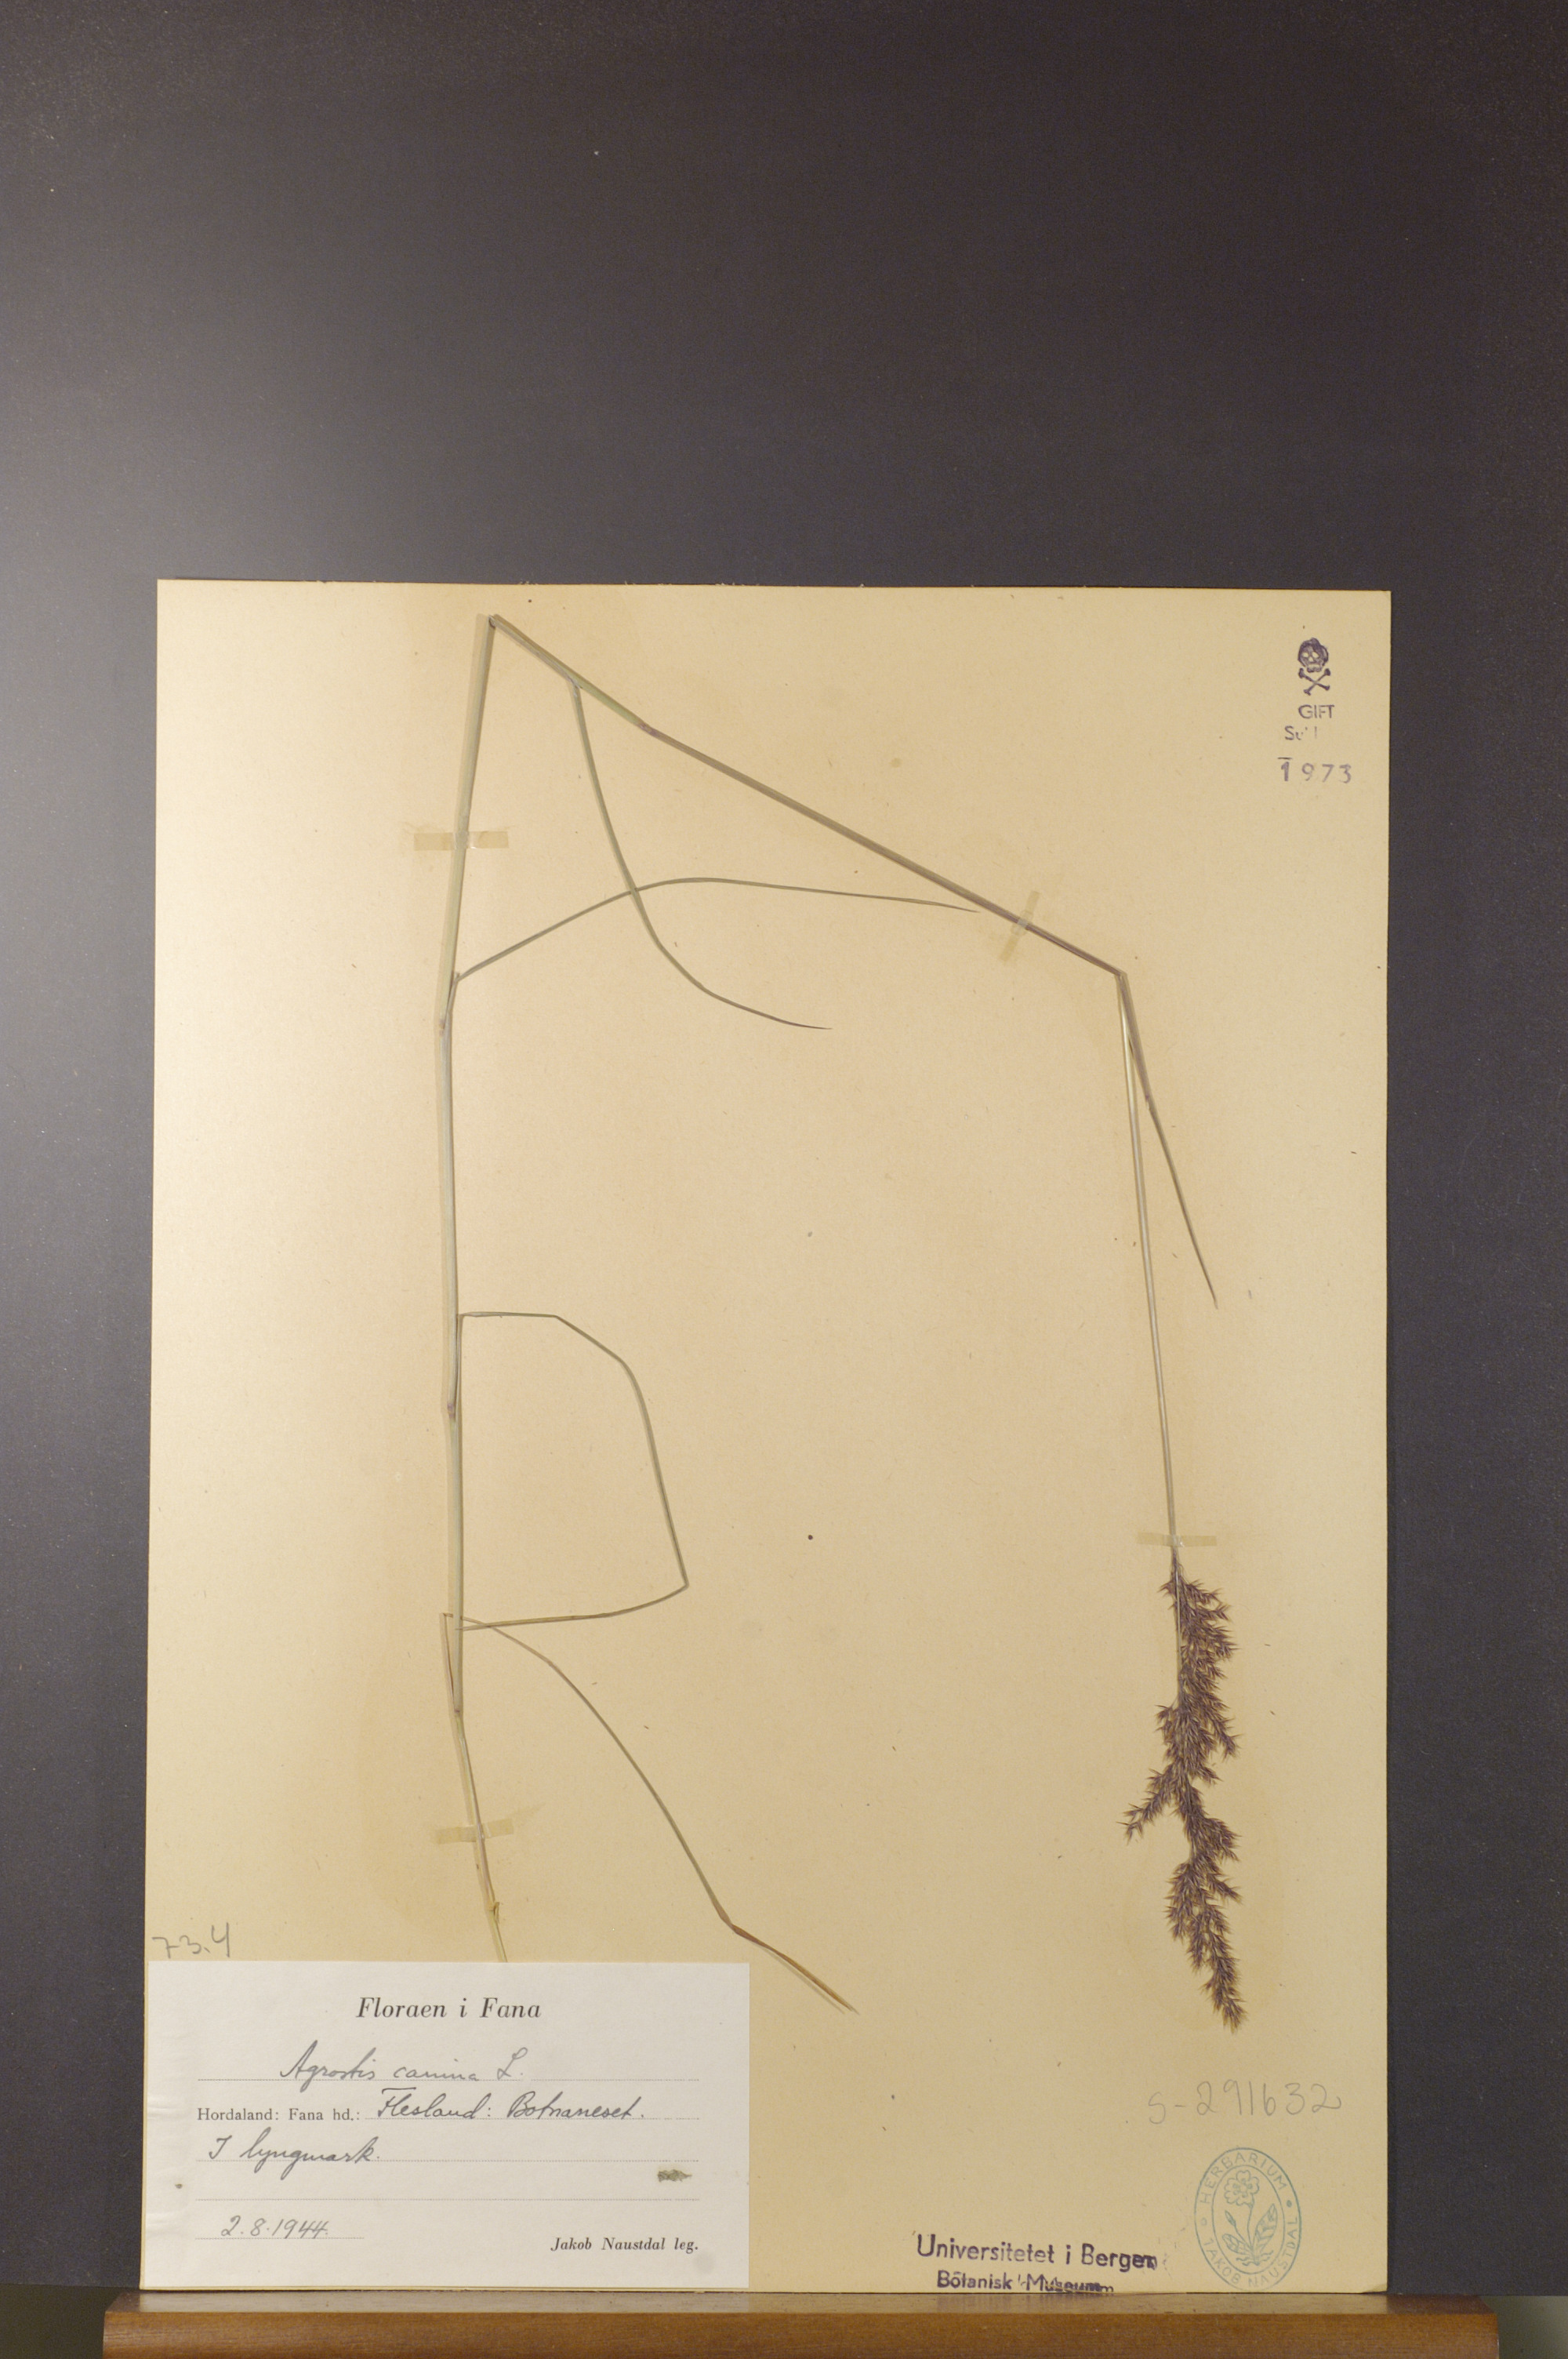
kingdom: Plantae
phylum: Tracheophyta
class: Liliopsida
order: Poales
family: Poaceae
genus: Agrostis
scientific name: Agrostis canina
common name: Velvet bent
